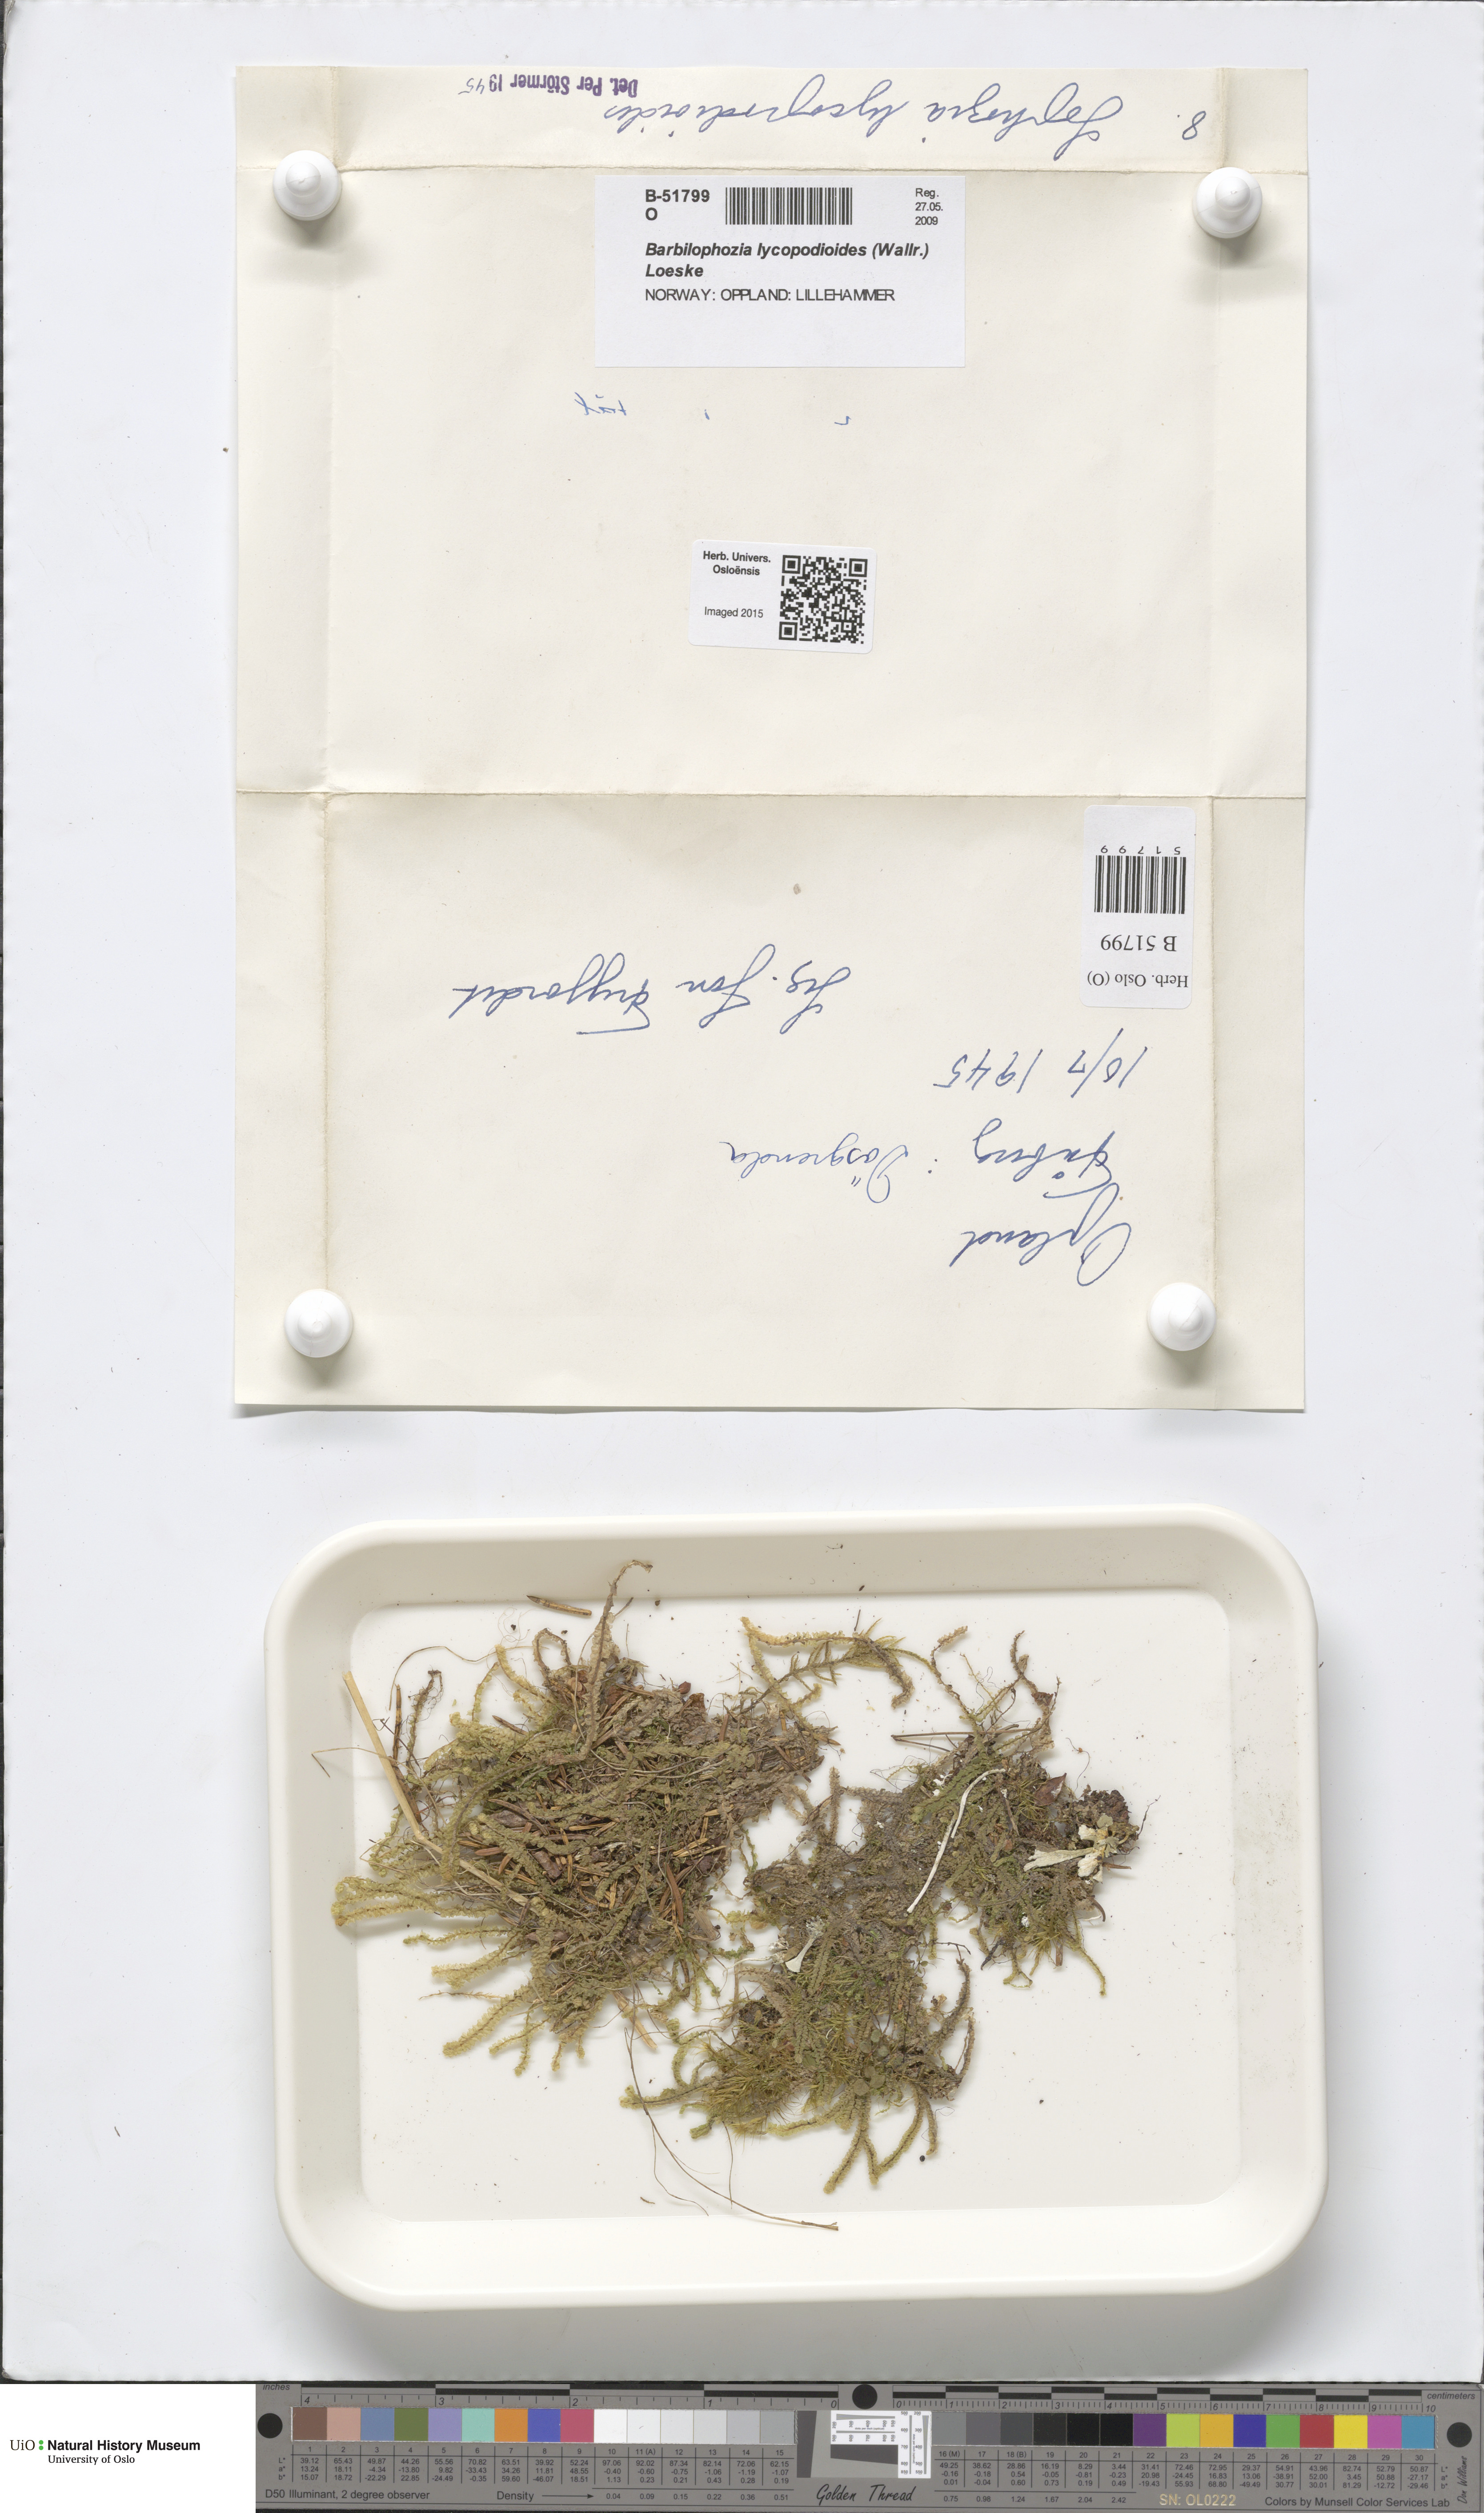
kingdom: Plantae
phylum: Marchantiophyta
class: Jungermanniopsida
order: Jungermanniales
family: Anastrophyllaceae
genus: Barbilophozia
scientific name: Barbilophozia lycopodioides
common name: Greater pawwort
